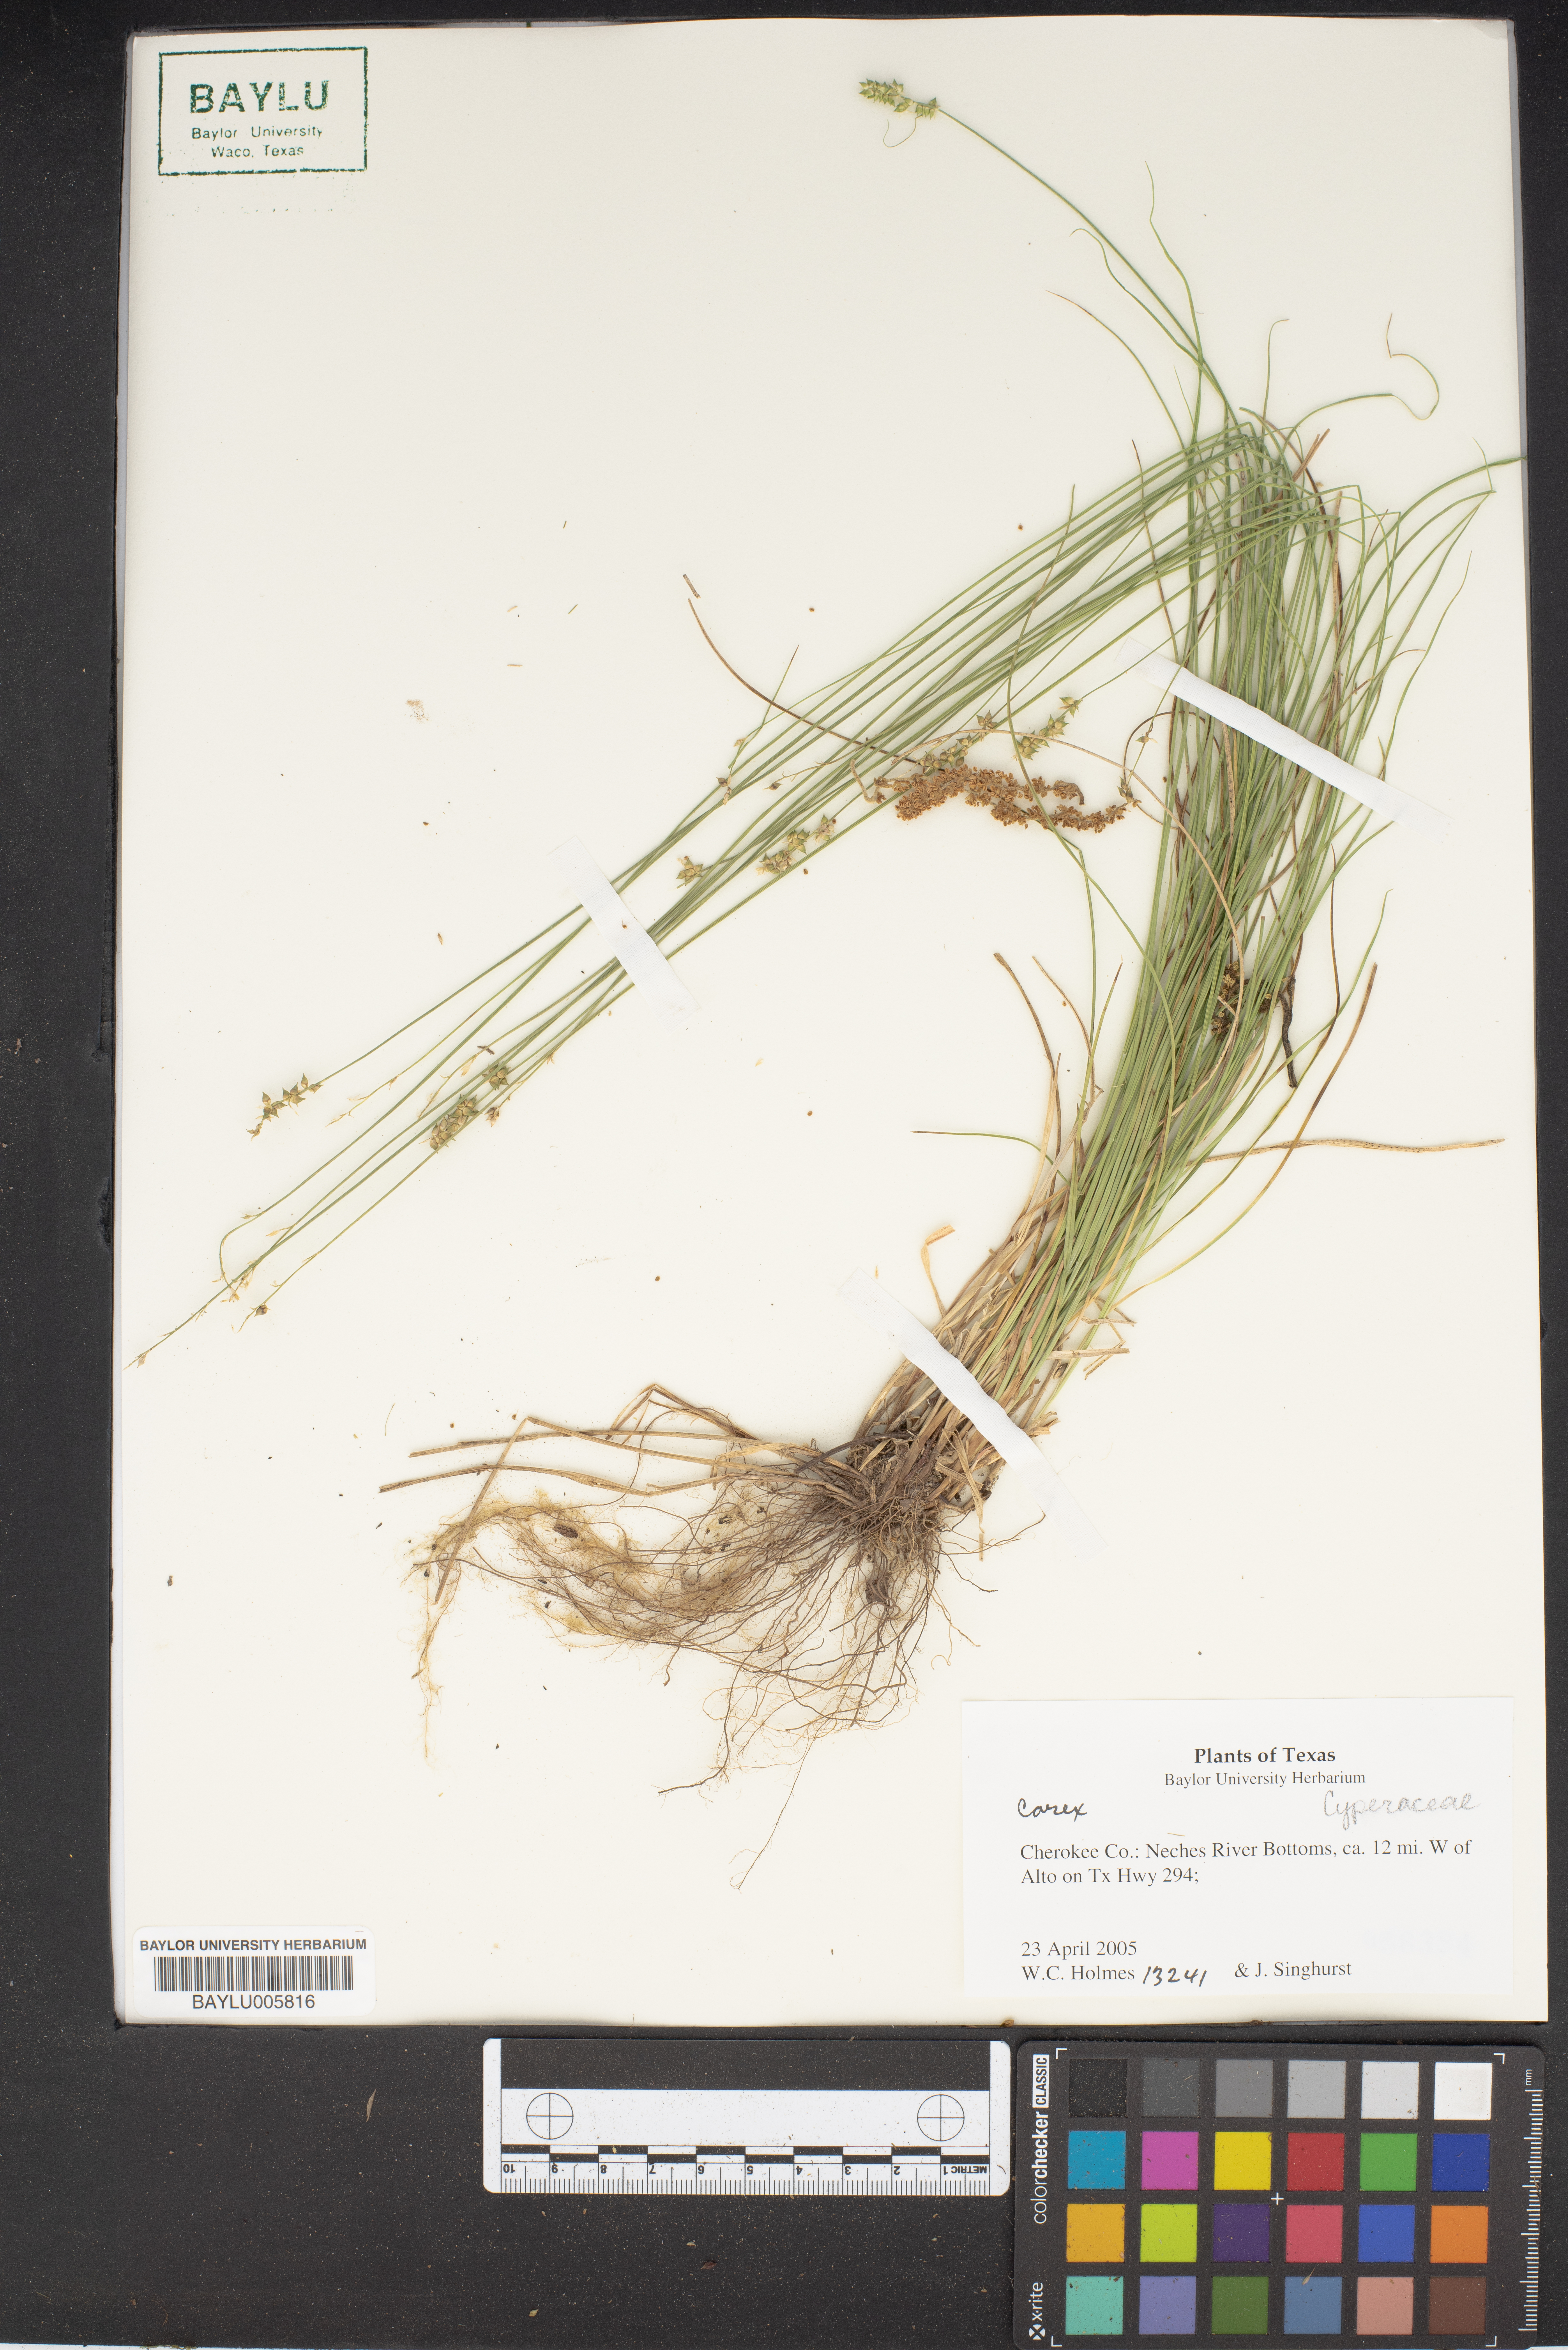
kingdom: Plantae
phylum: Tracheophyta
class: Liliopsida
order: Poales
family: Cyperaceae
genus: Carex
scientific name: Carex
